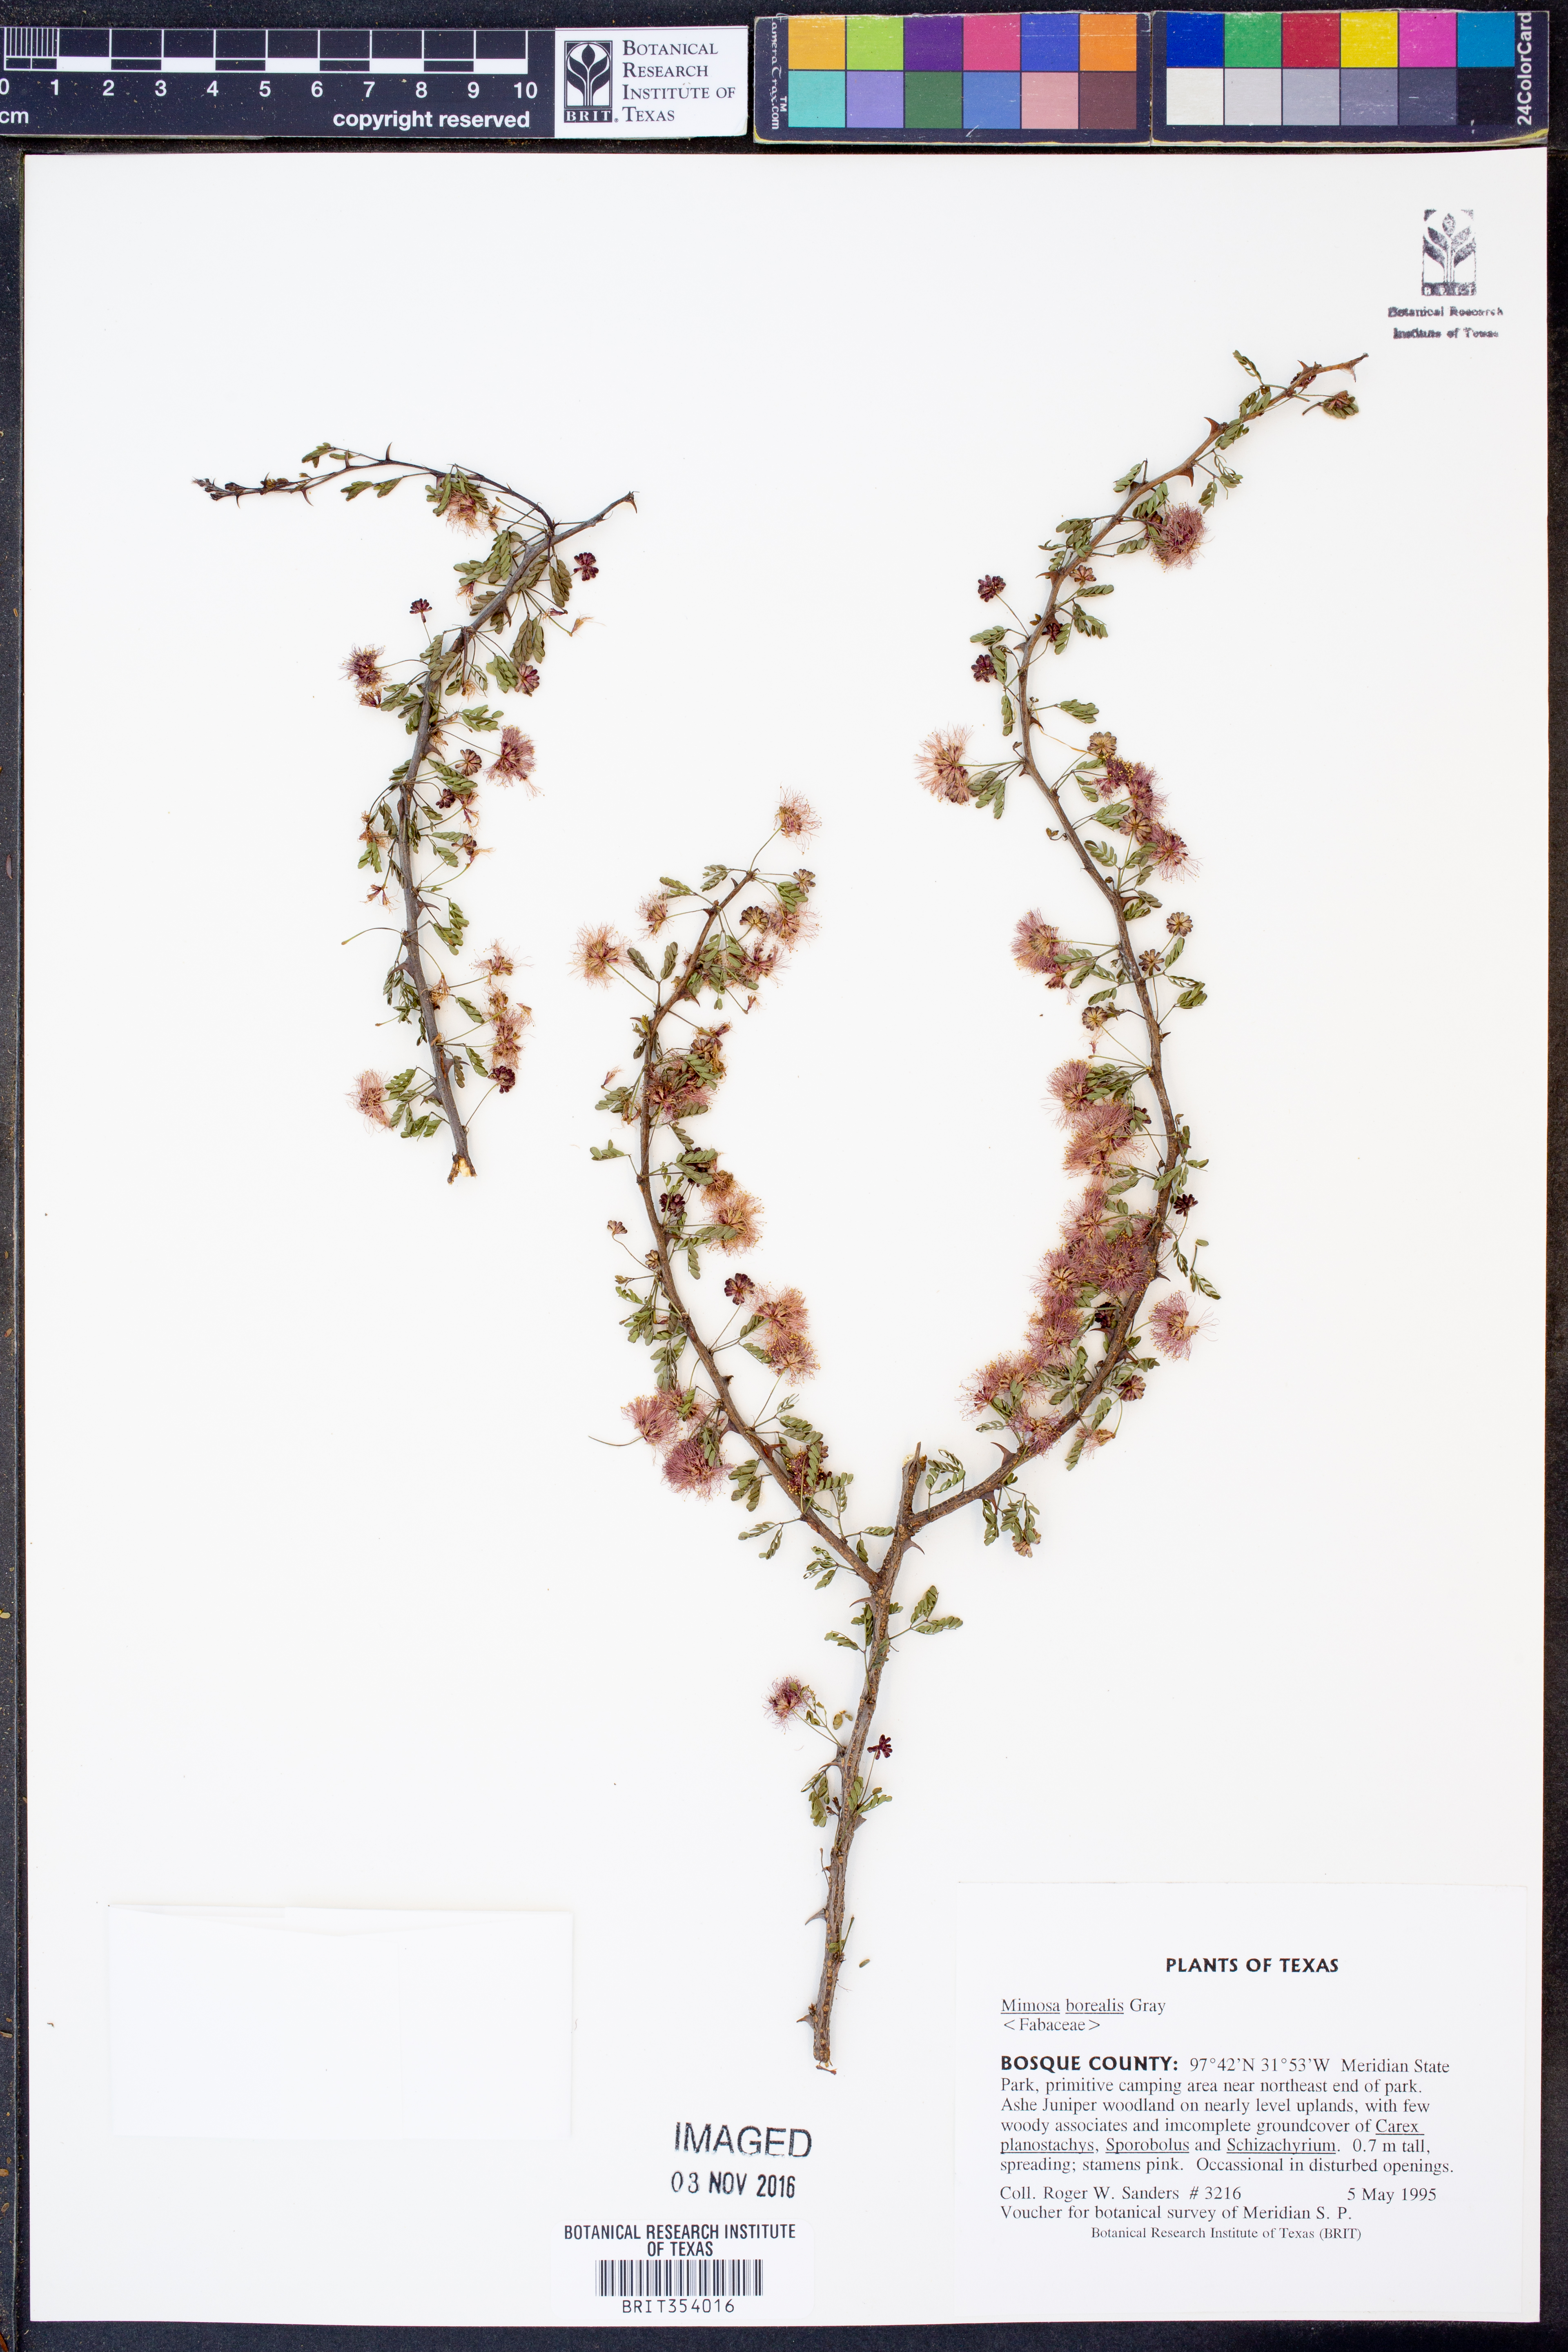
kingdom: Plantae
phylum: Tracheophyta
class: Magnoliopsida
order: Fabales
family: Fabaceae
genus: Mimosa
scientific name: Mimosa borealis
